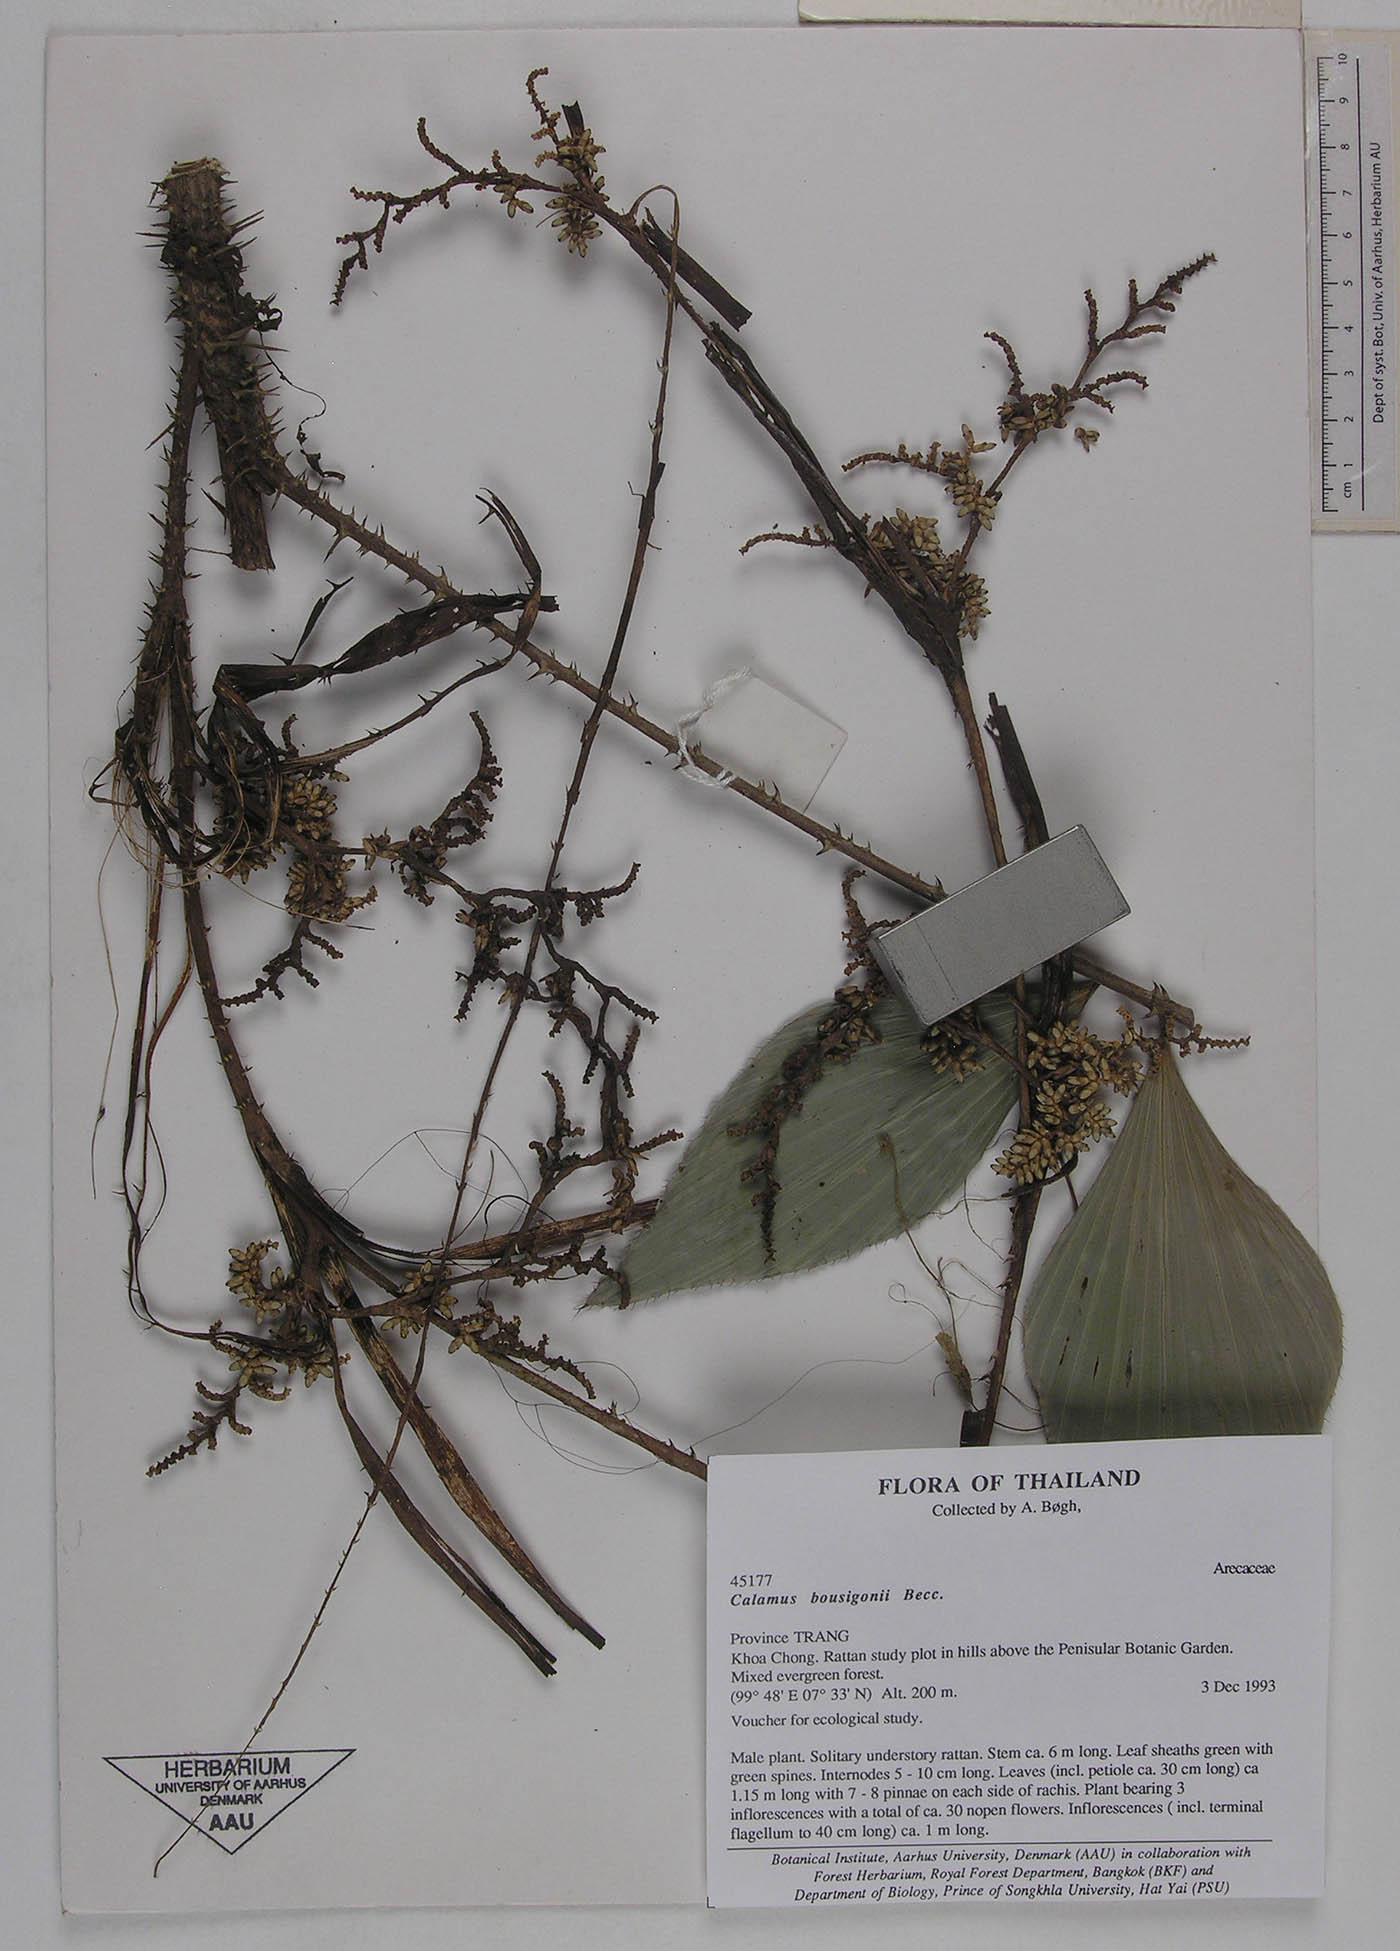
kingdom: Plantae
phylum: Tracheophyta
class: Liliopsida
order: Arecales
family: Arecaceae
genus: Calamus
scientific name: Calamus bousigonii
